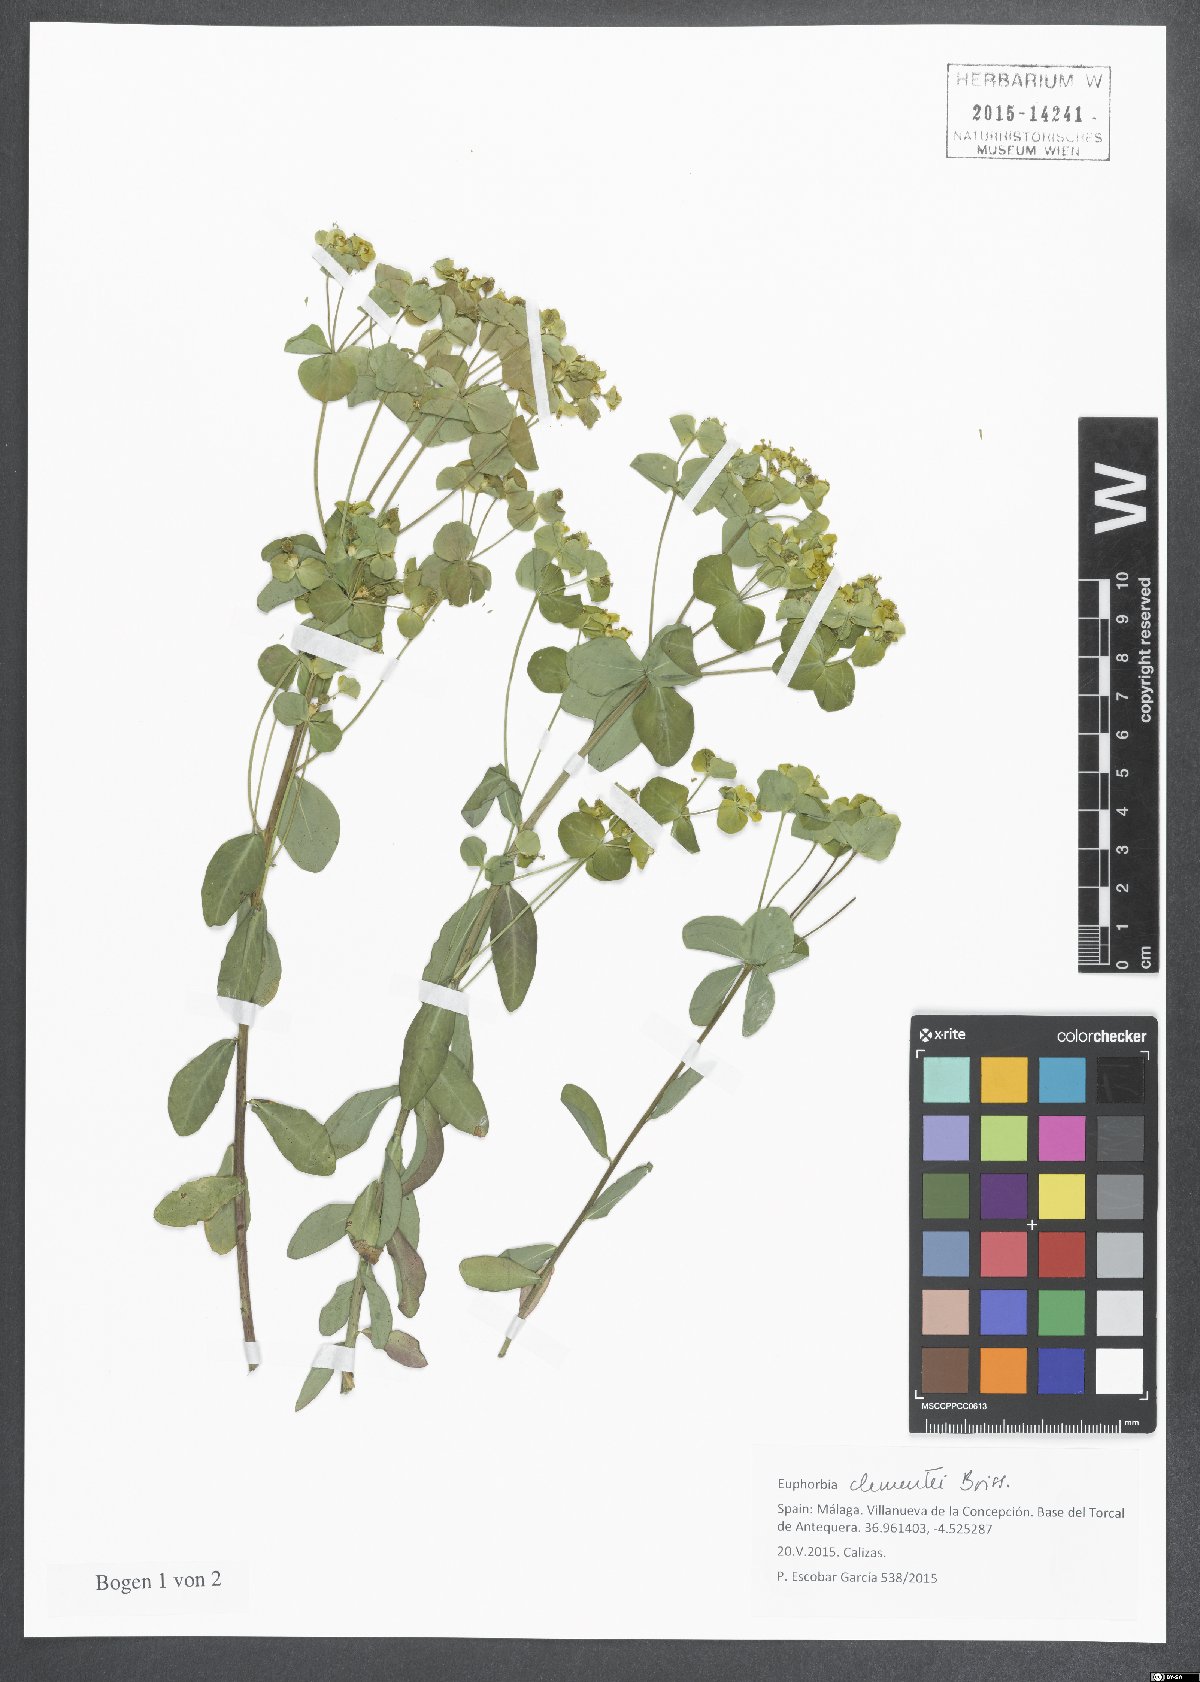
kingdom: Plantae
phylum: Tracheophyta
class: Magnoliopsida
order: Malpighiales
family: Euphorbiaceae
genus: Euphorbia
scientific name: Euphorbia clementei
